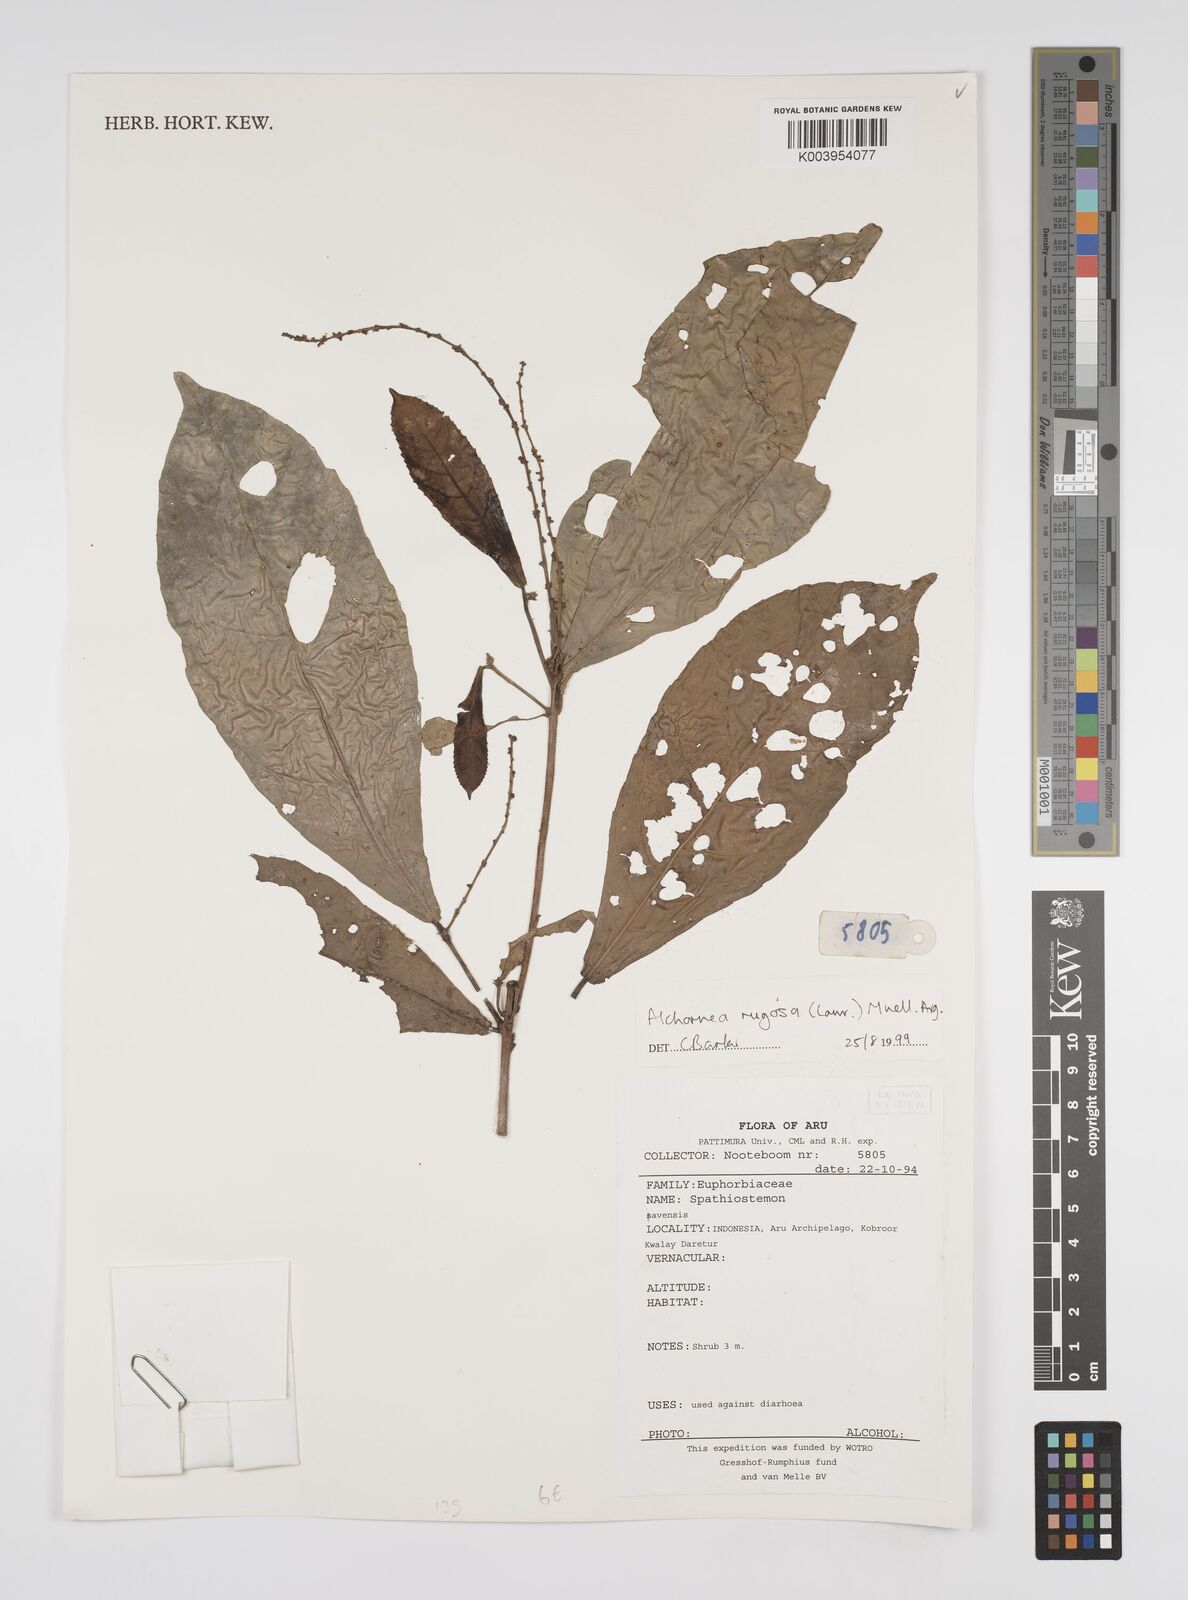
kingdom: Plantae
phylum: Tracheophyta
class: Magnoliopsida
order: Malpighiales
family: Euphorbiaceae
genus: Alchornea
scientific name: Alchornea rugosa
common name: Alchorntree
